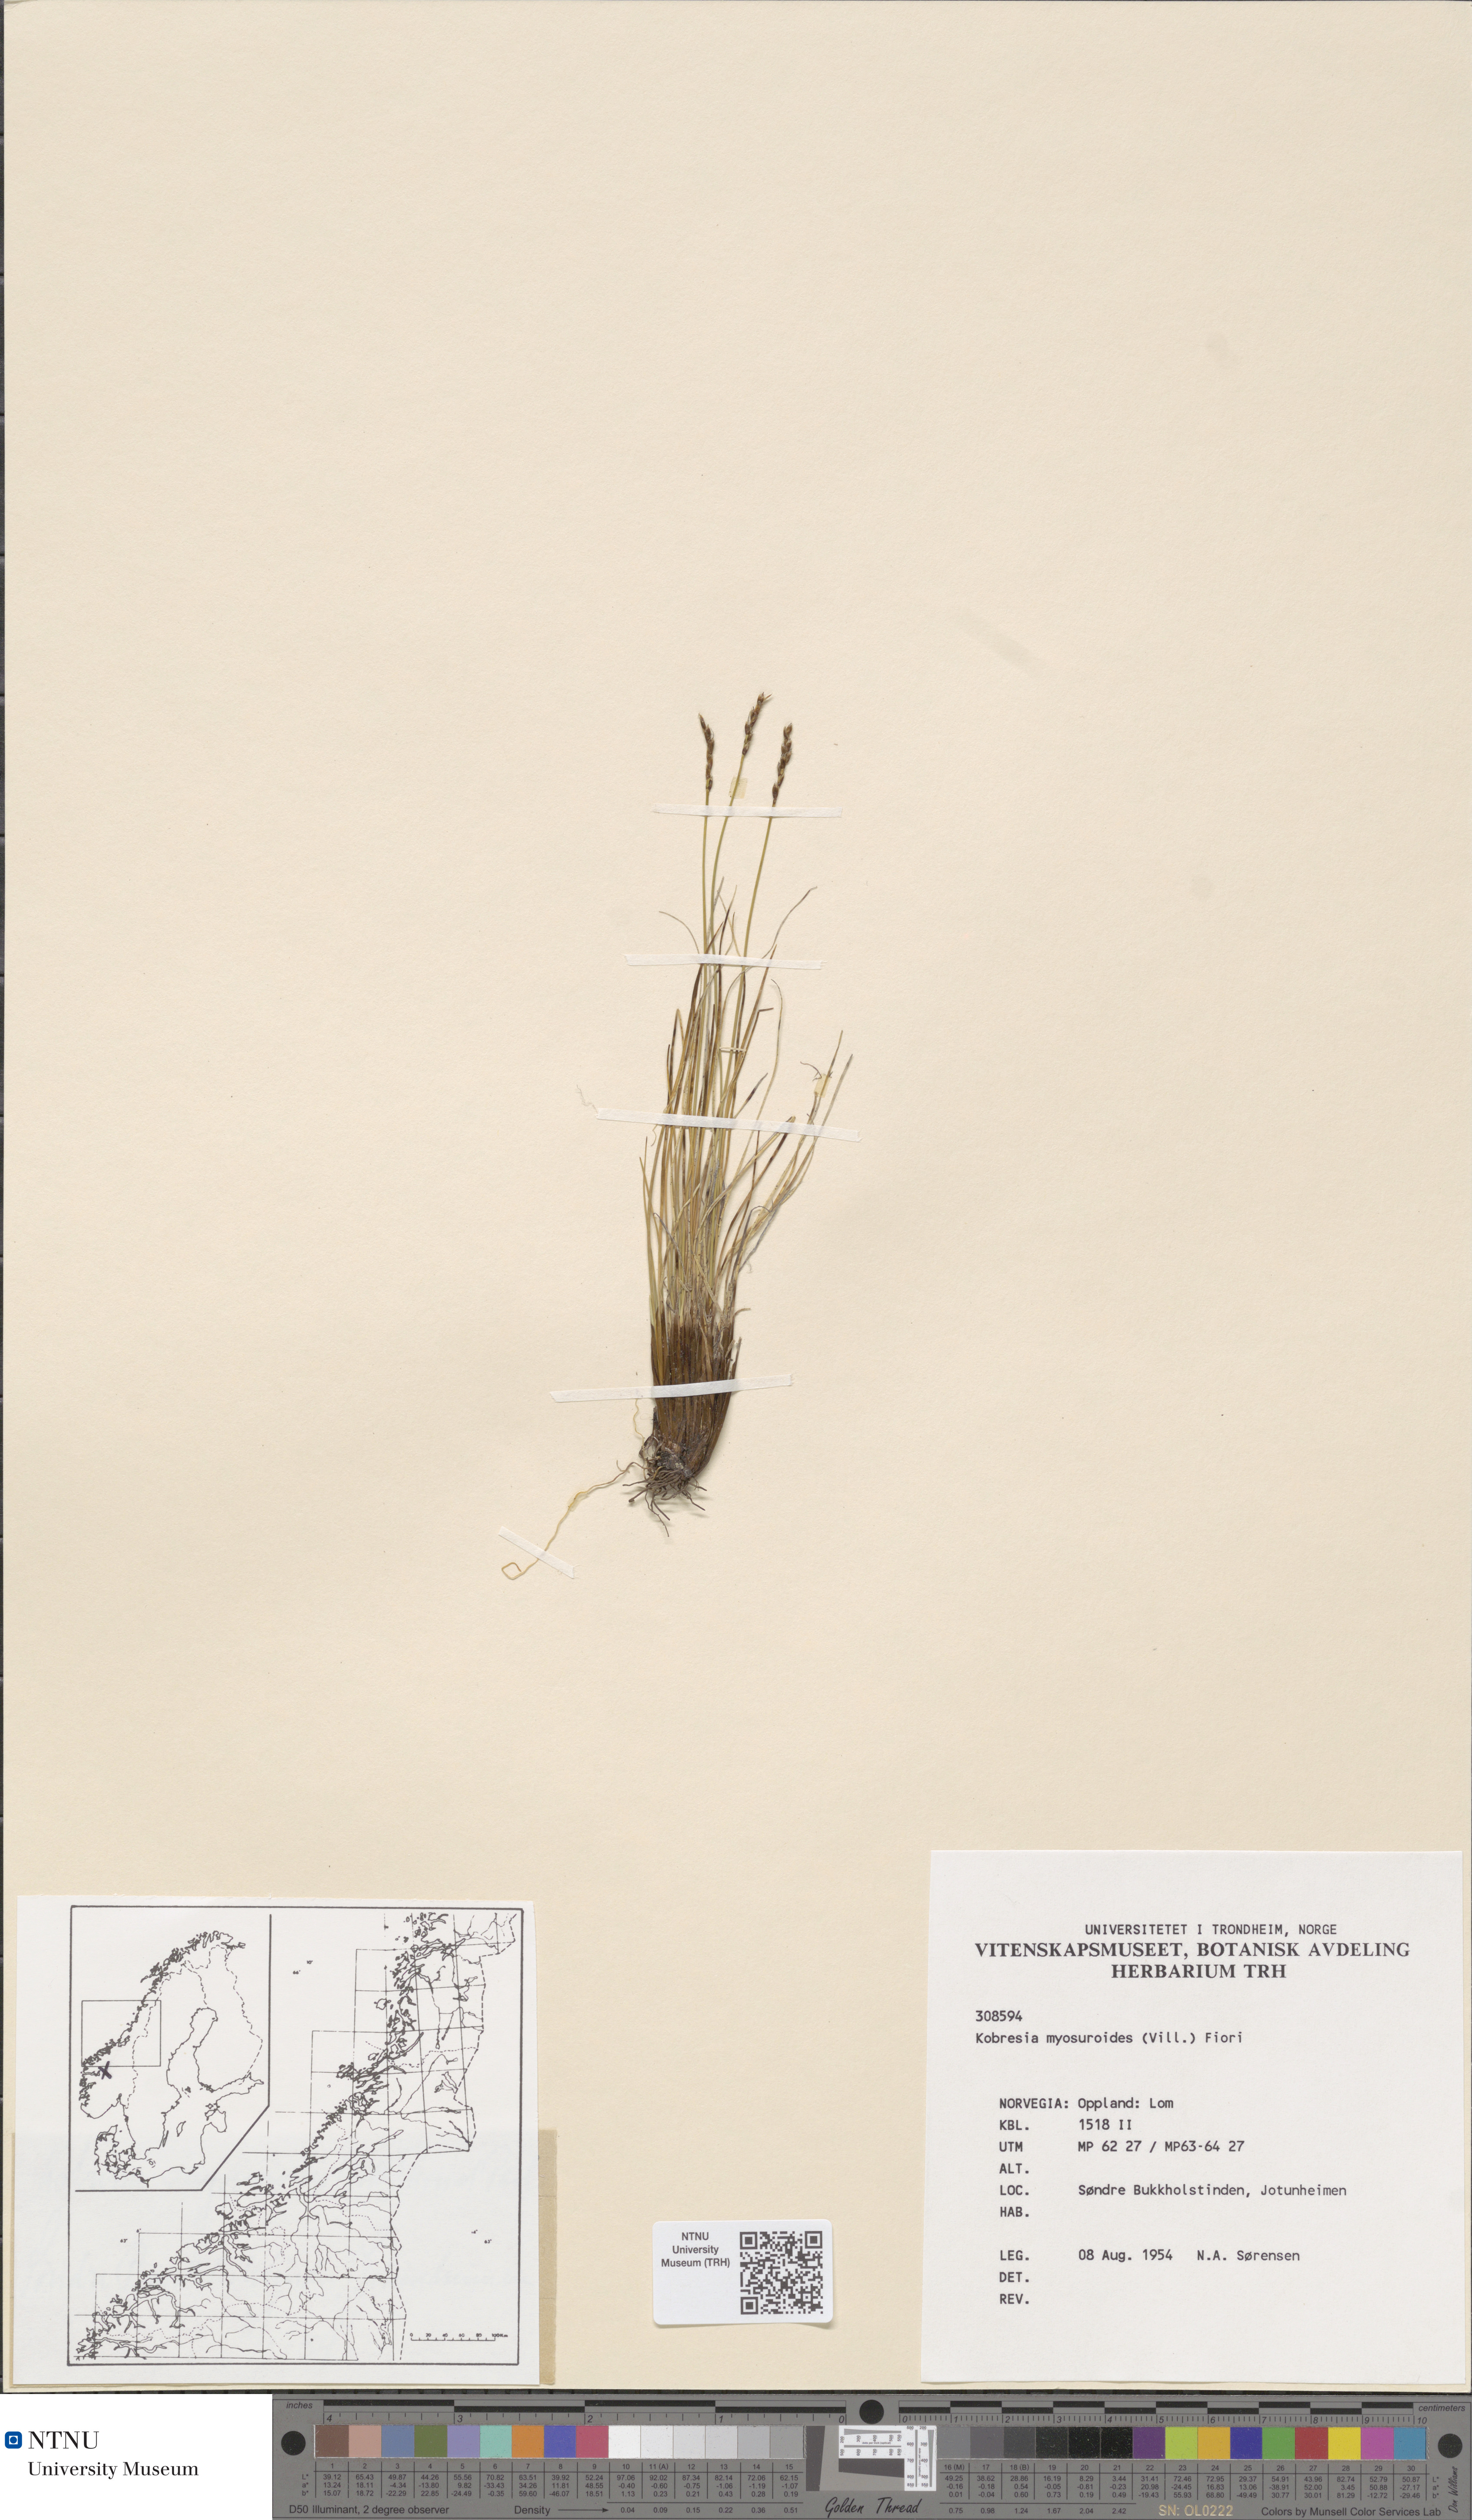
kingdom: Plantae
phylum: Tracheophyta
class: Liliopsida
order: Poales
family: Cyperaceae
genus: Carex
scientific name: Carex myosuroides
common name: Bellard's bog sedge
